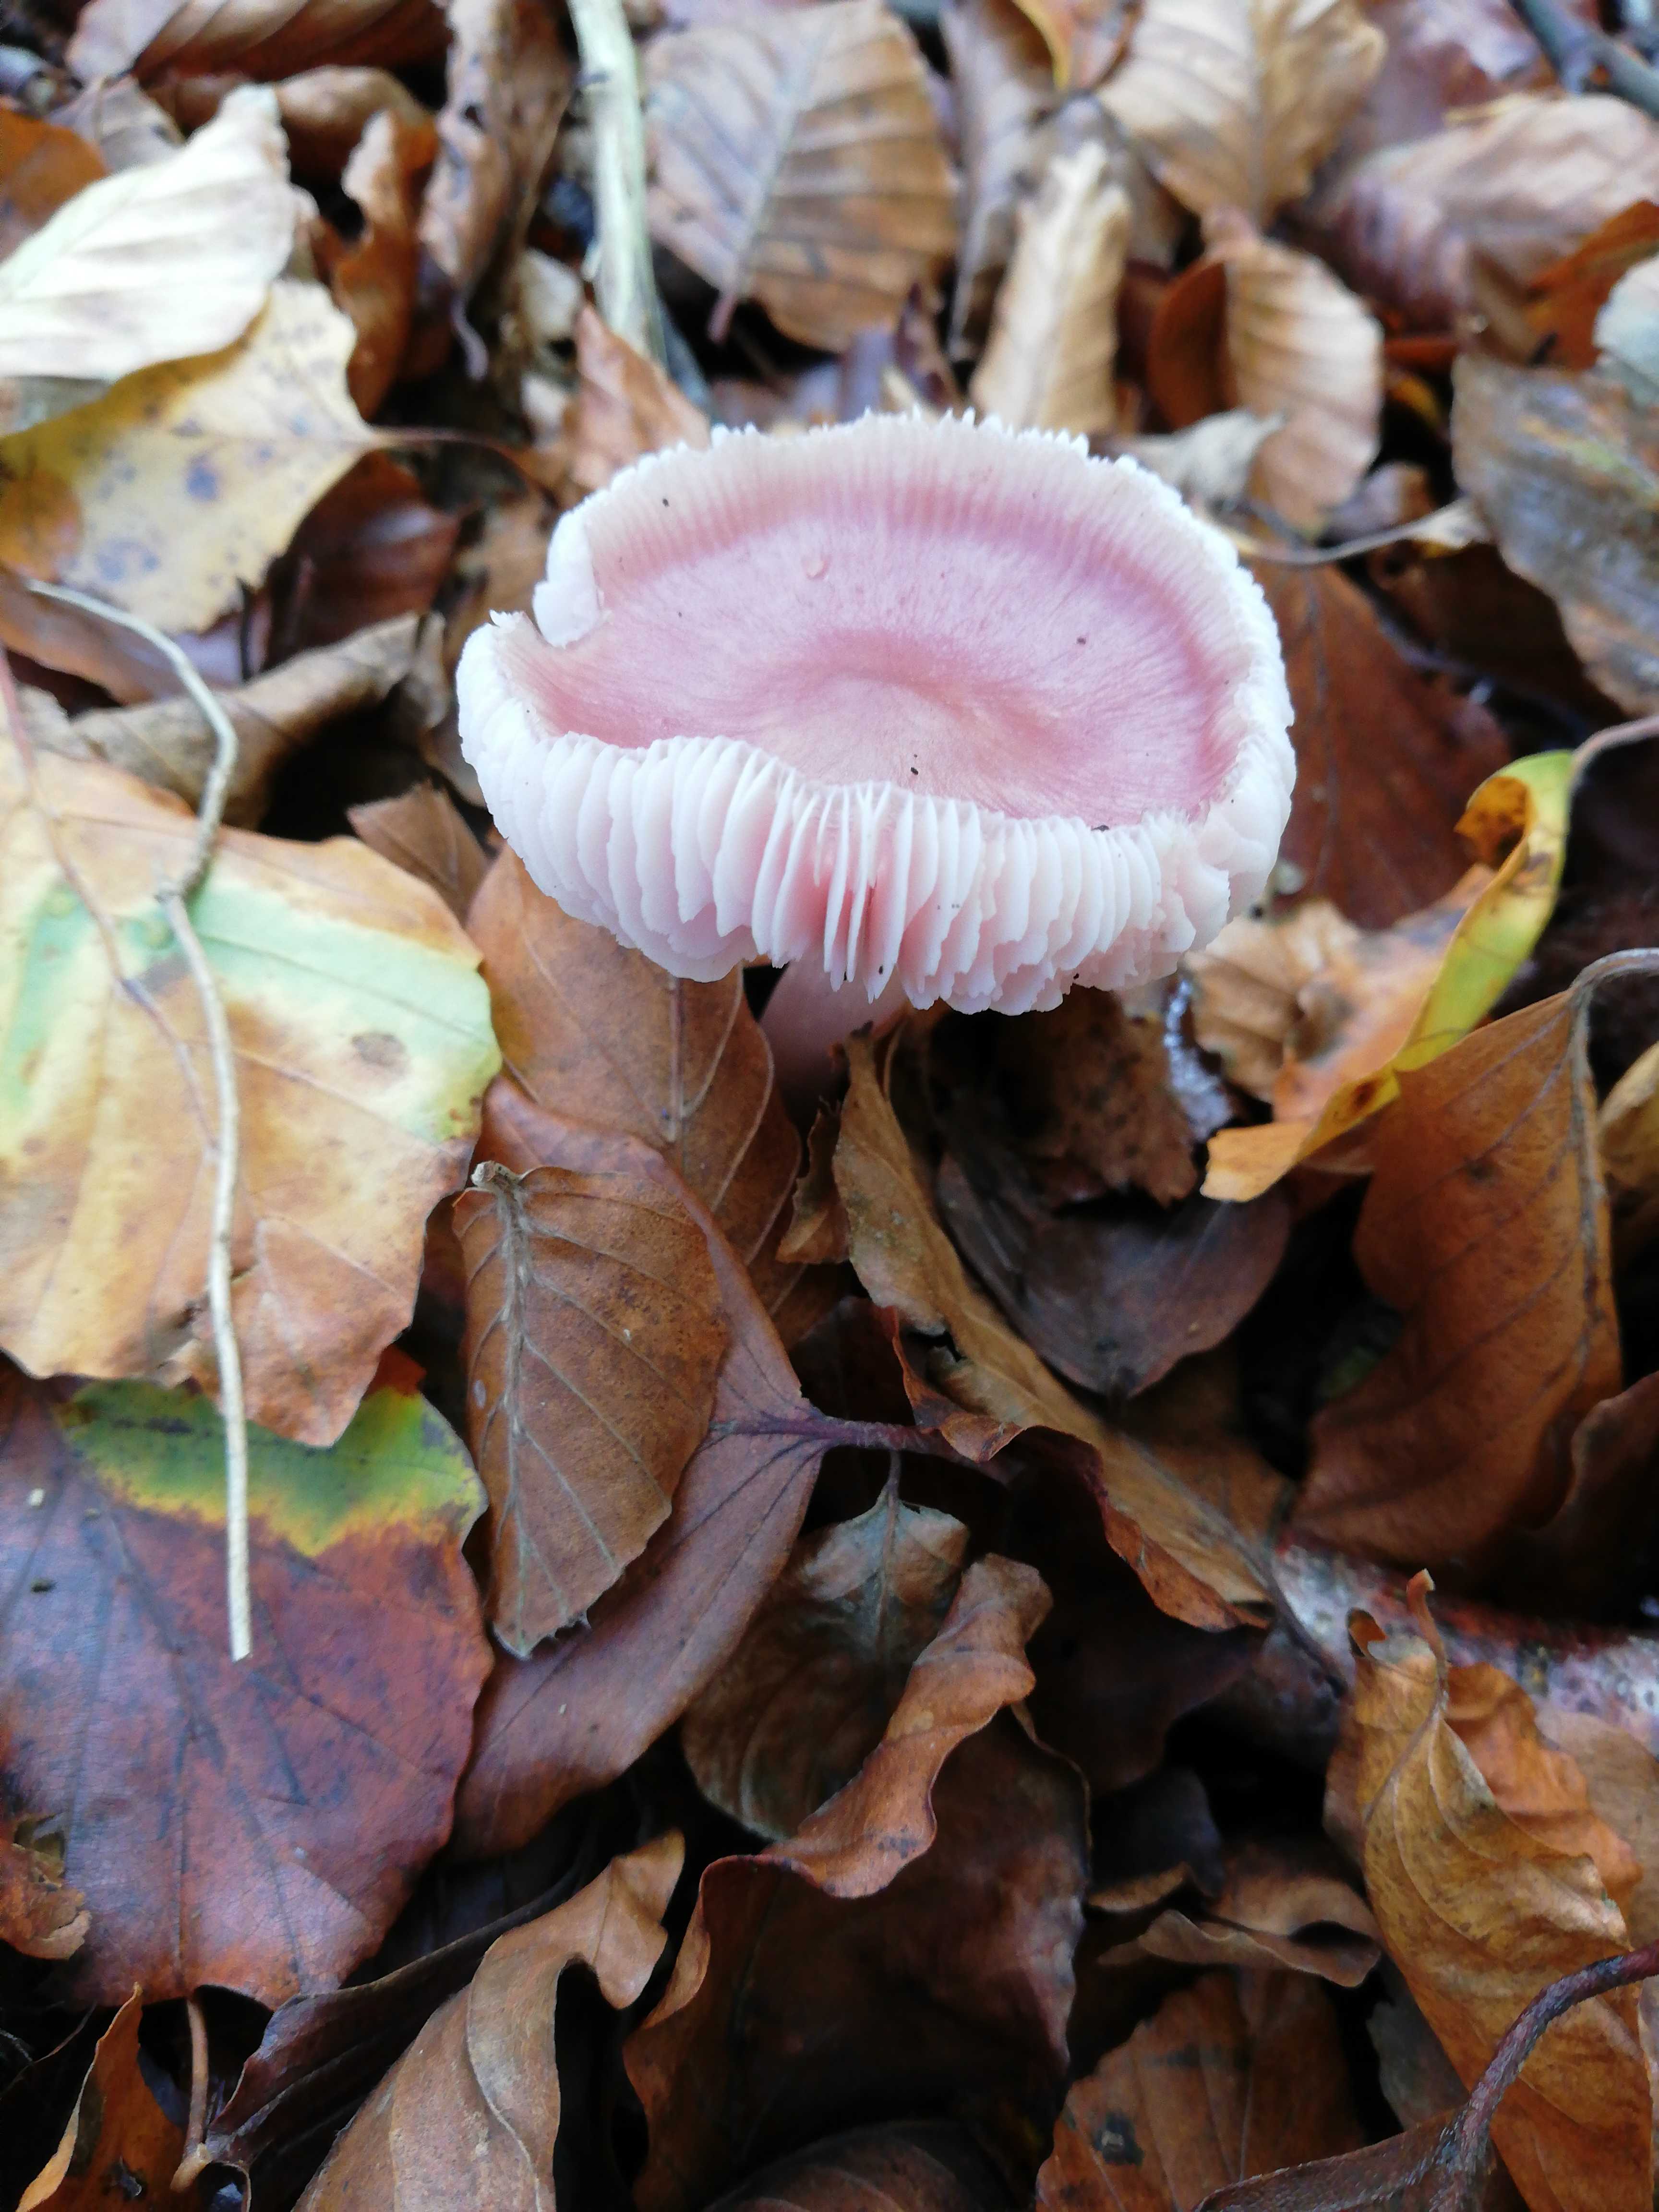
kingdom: Fungi
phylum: Basidiomycota
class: Agaricomycetes
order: Agaricales
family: Mycenaceae
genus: Mycena
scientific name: Mycena rosea
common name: rosa huesvamp
